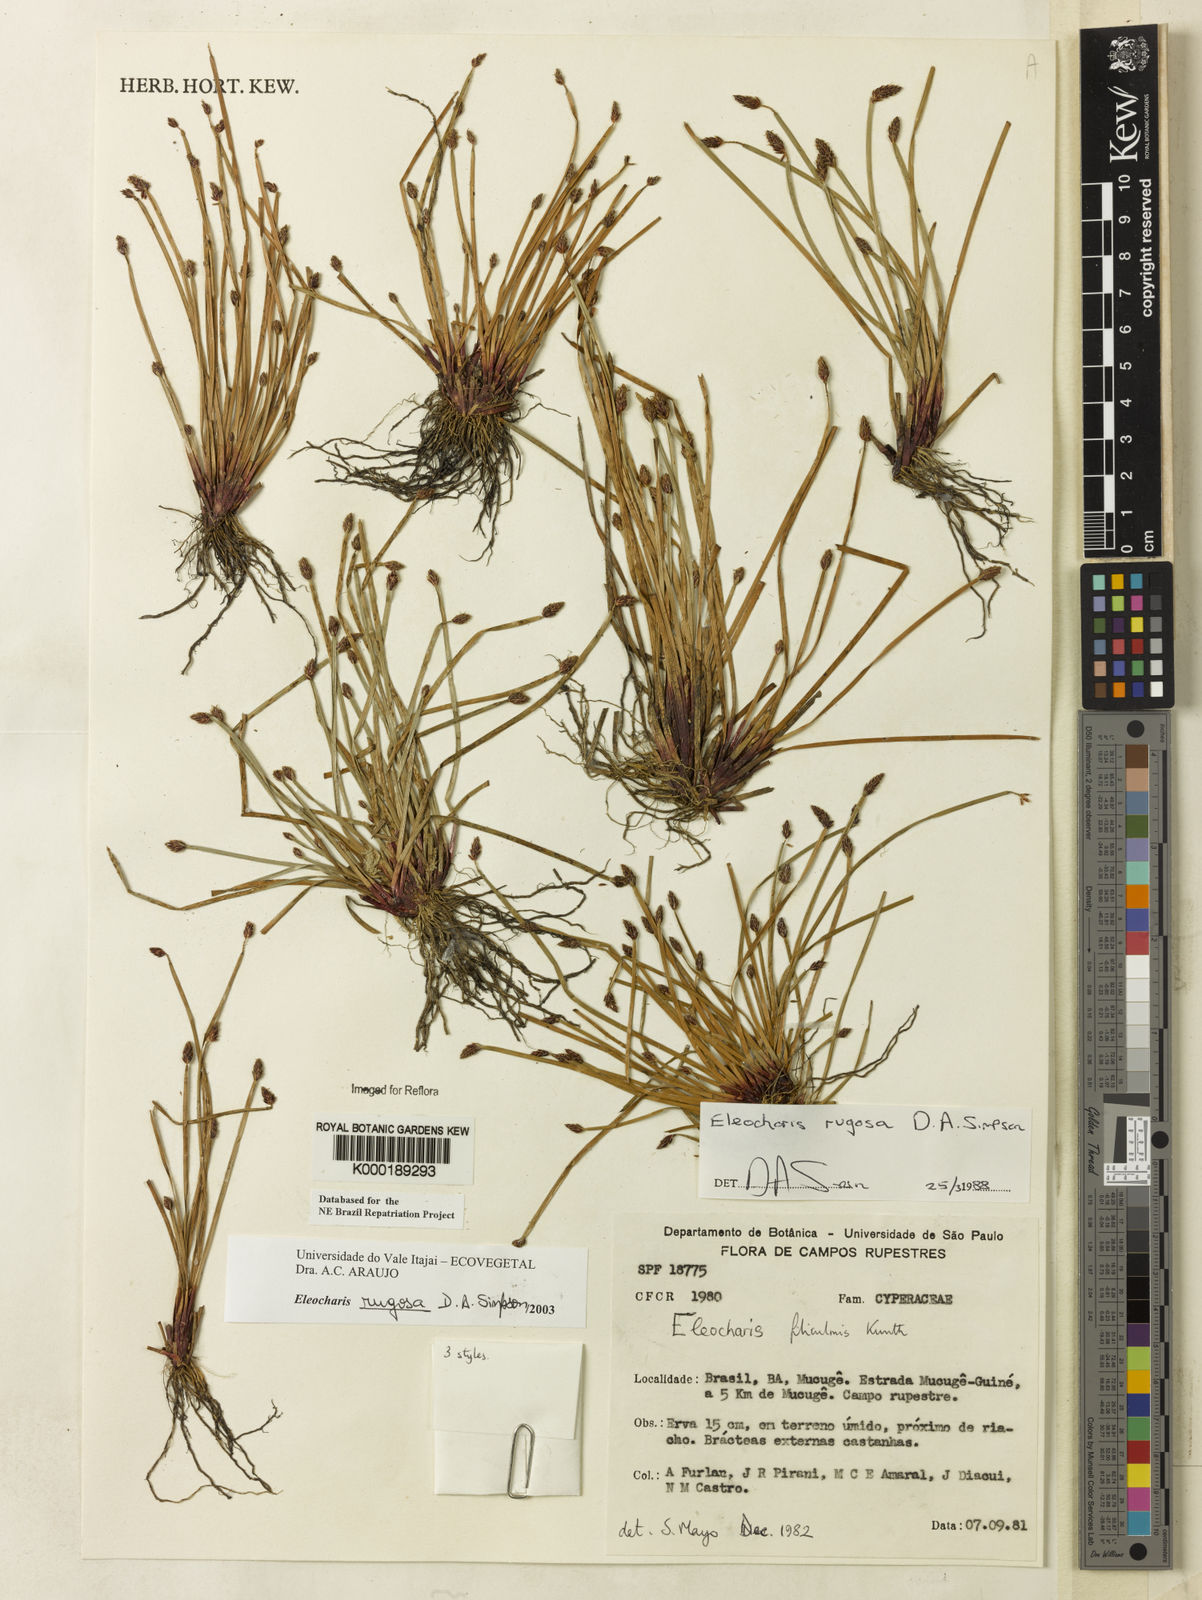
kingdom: Plantae
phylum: Tracheophyta
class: Liliopsida
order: Poales
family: Cyperaceae
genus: Eleocharis
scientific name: Eleocharis rugosa
